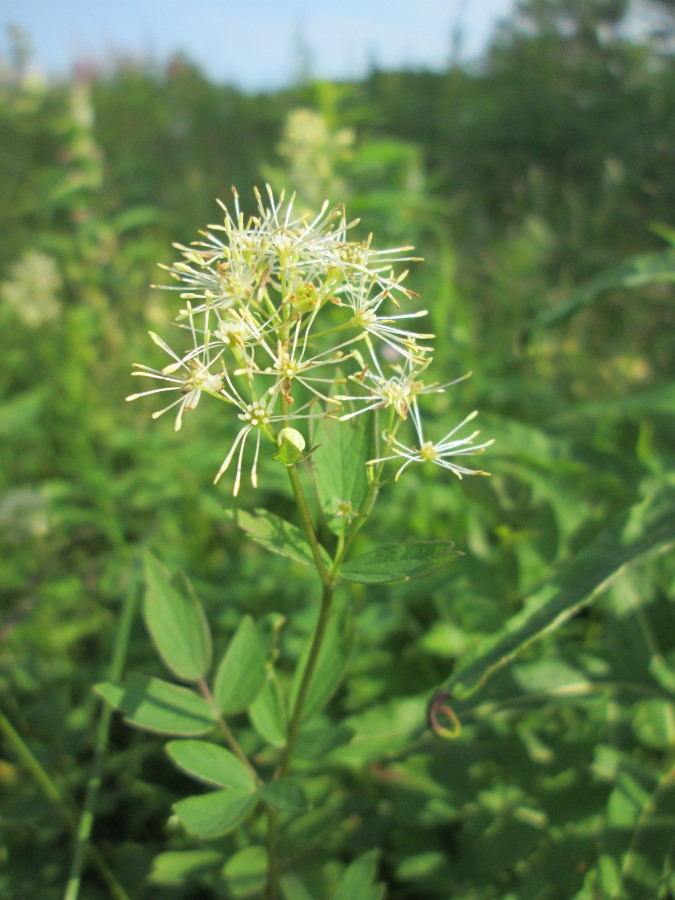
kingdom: Plantae
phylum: Tracheophyta
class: Magnoliopsida
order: Ranunculales
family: Ranunculaceae
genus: Thalictrum
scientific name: Thalictrum flavum
